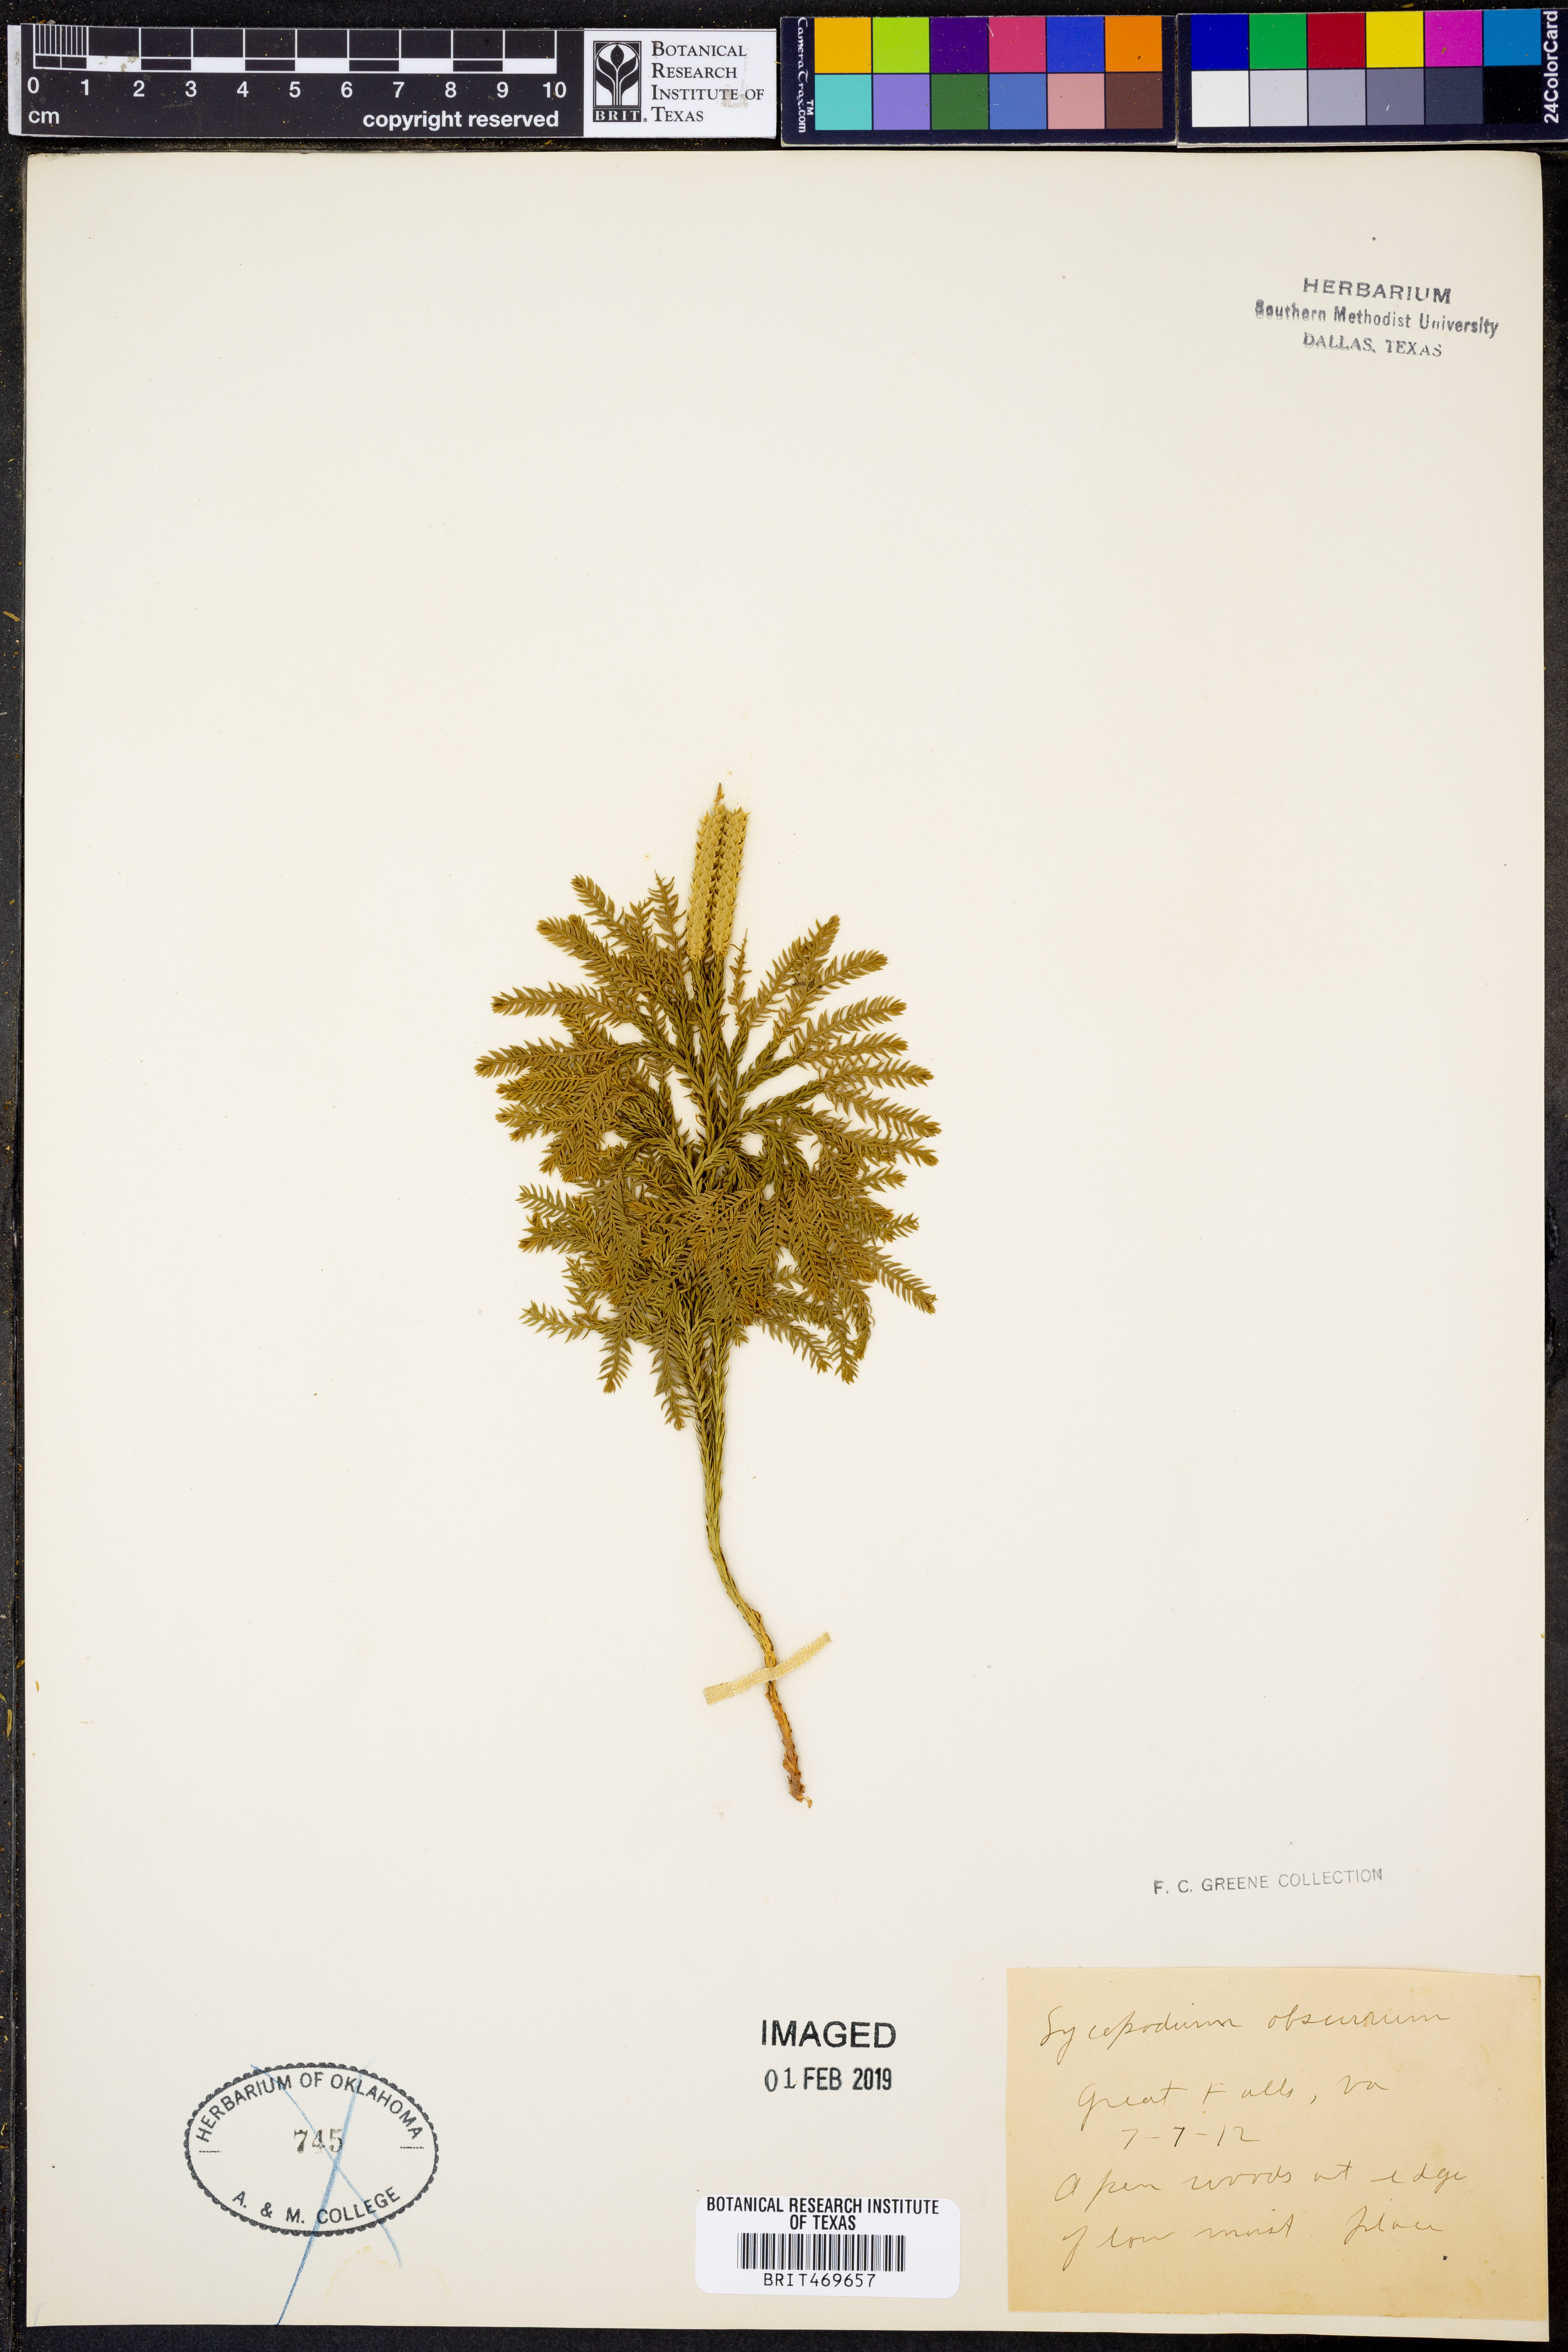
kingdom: Plantae
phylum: Tracheophyta
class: Lycopodiopsida
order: Lycopodiales
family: Lycopodiaceae
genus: Dendrolycopodium
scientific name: Dendrolycopodium obscurum
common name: Common ground-pine
